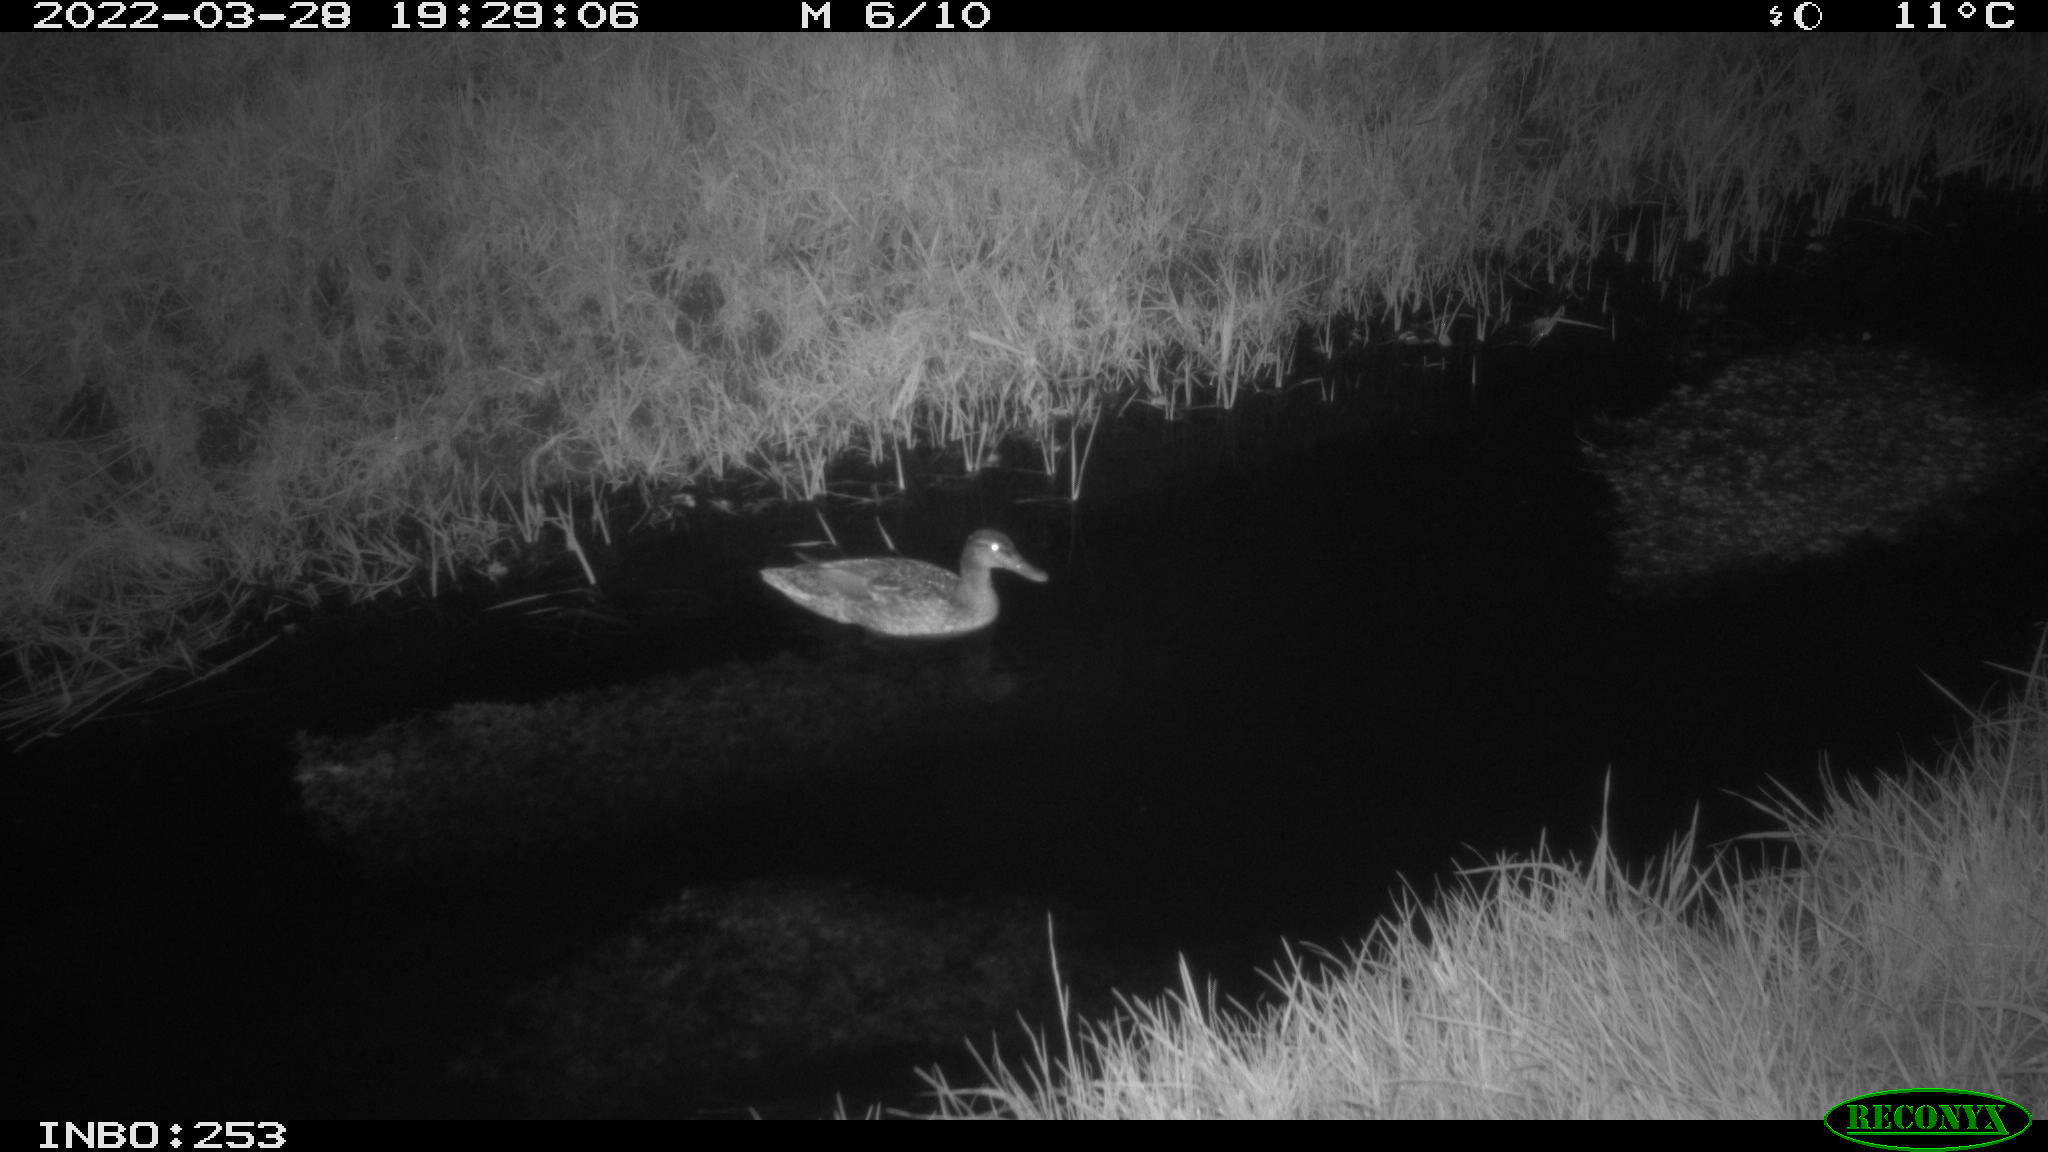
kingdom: Animalia
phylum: Chordata
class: Aves
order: Anseriformes
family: Anatidae
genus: Anas
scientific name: Anas platyrhynchos
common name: Mallard
